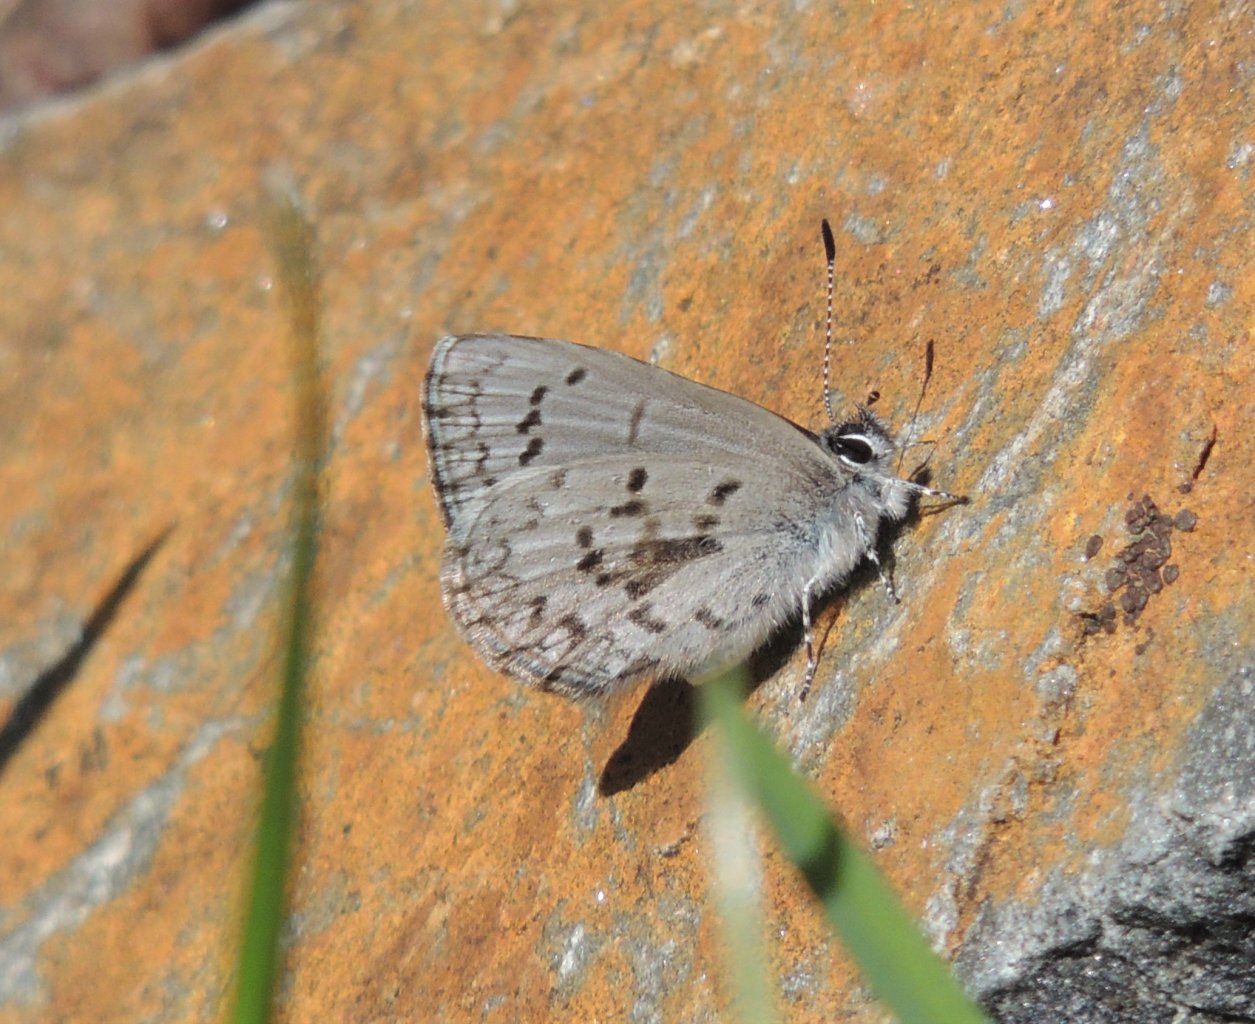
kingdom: Animalia
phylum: Arthropoda
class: Insecta
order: Lepidoptera
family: Lycaenidae
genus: Celastrina
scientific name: Celastrina ladon
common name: Echo Azure
